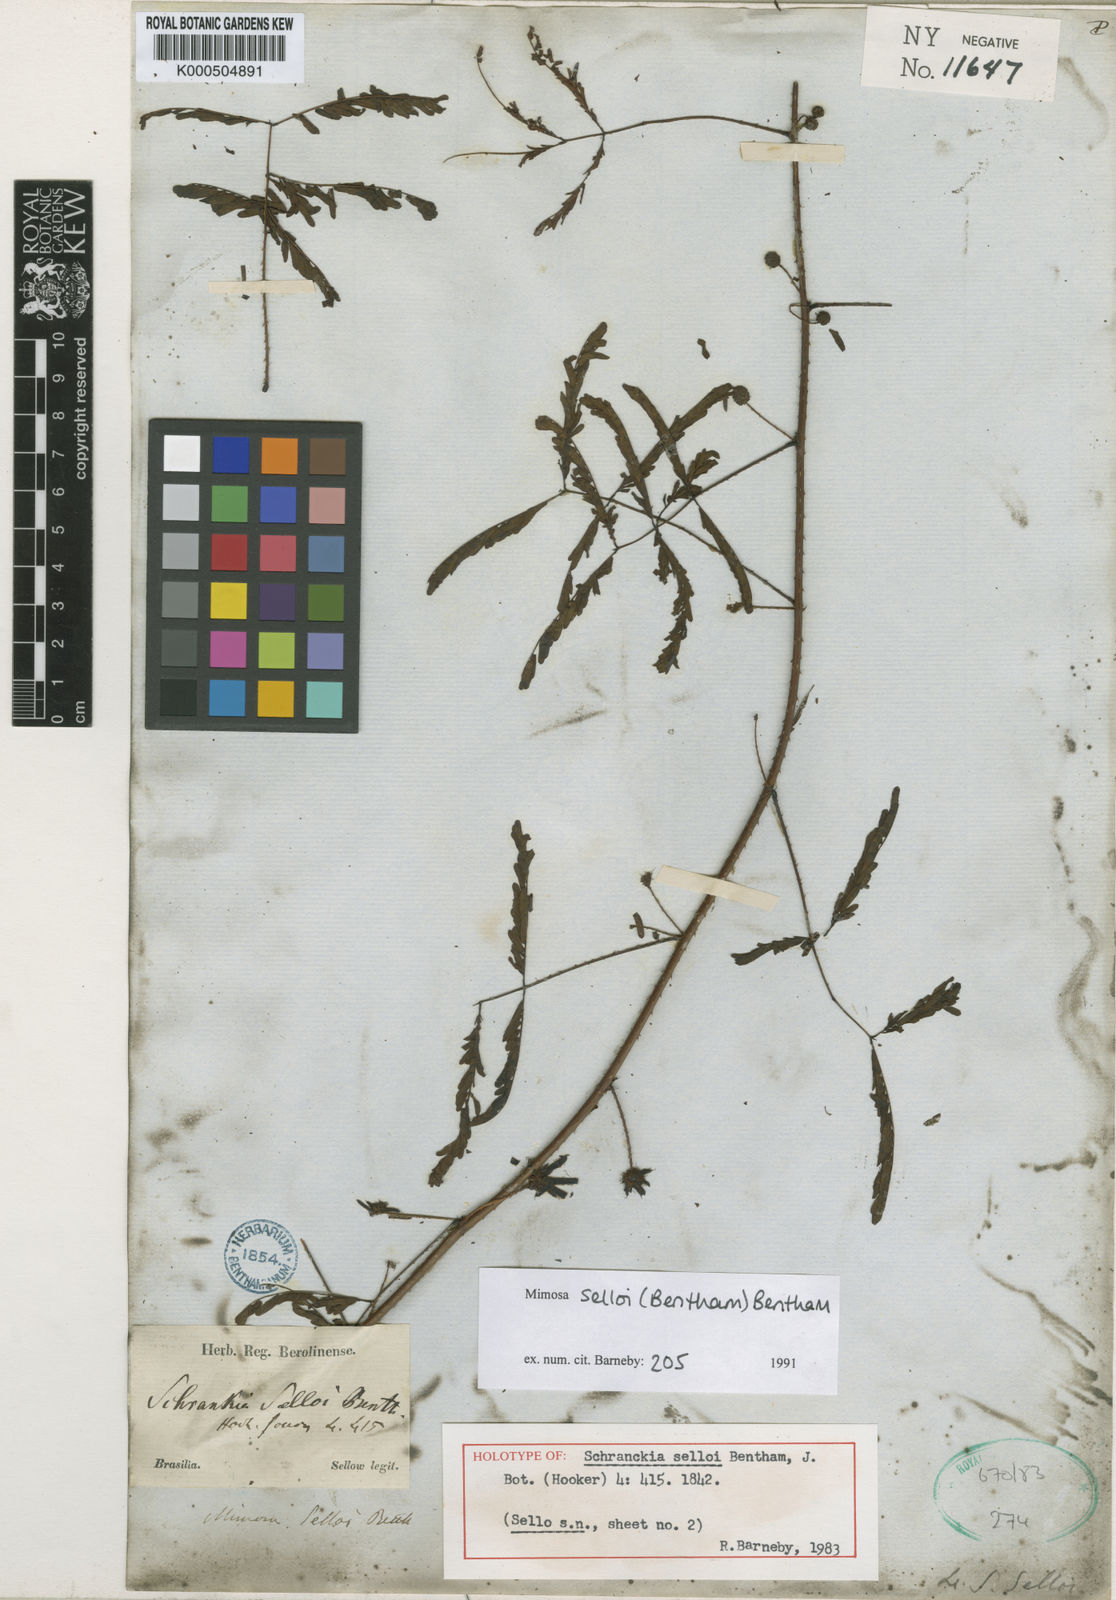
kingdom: Plantae
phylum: Tracheophyta
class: Magnoliopsida
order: Fabales
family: Fabaceae
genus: Mimosa
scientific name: Mimosa selloi
